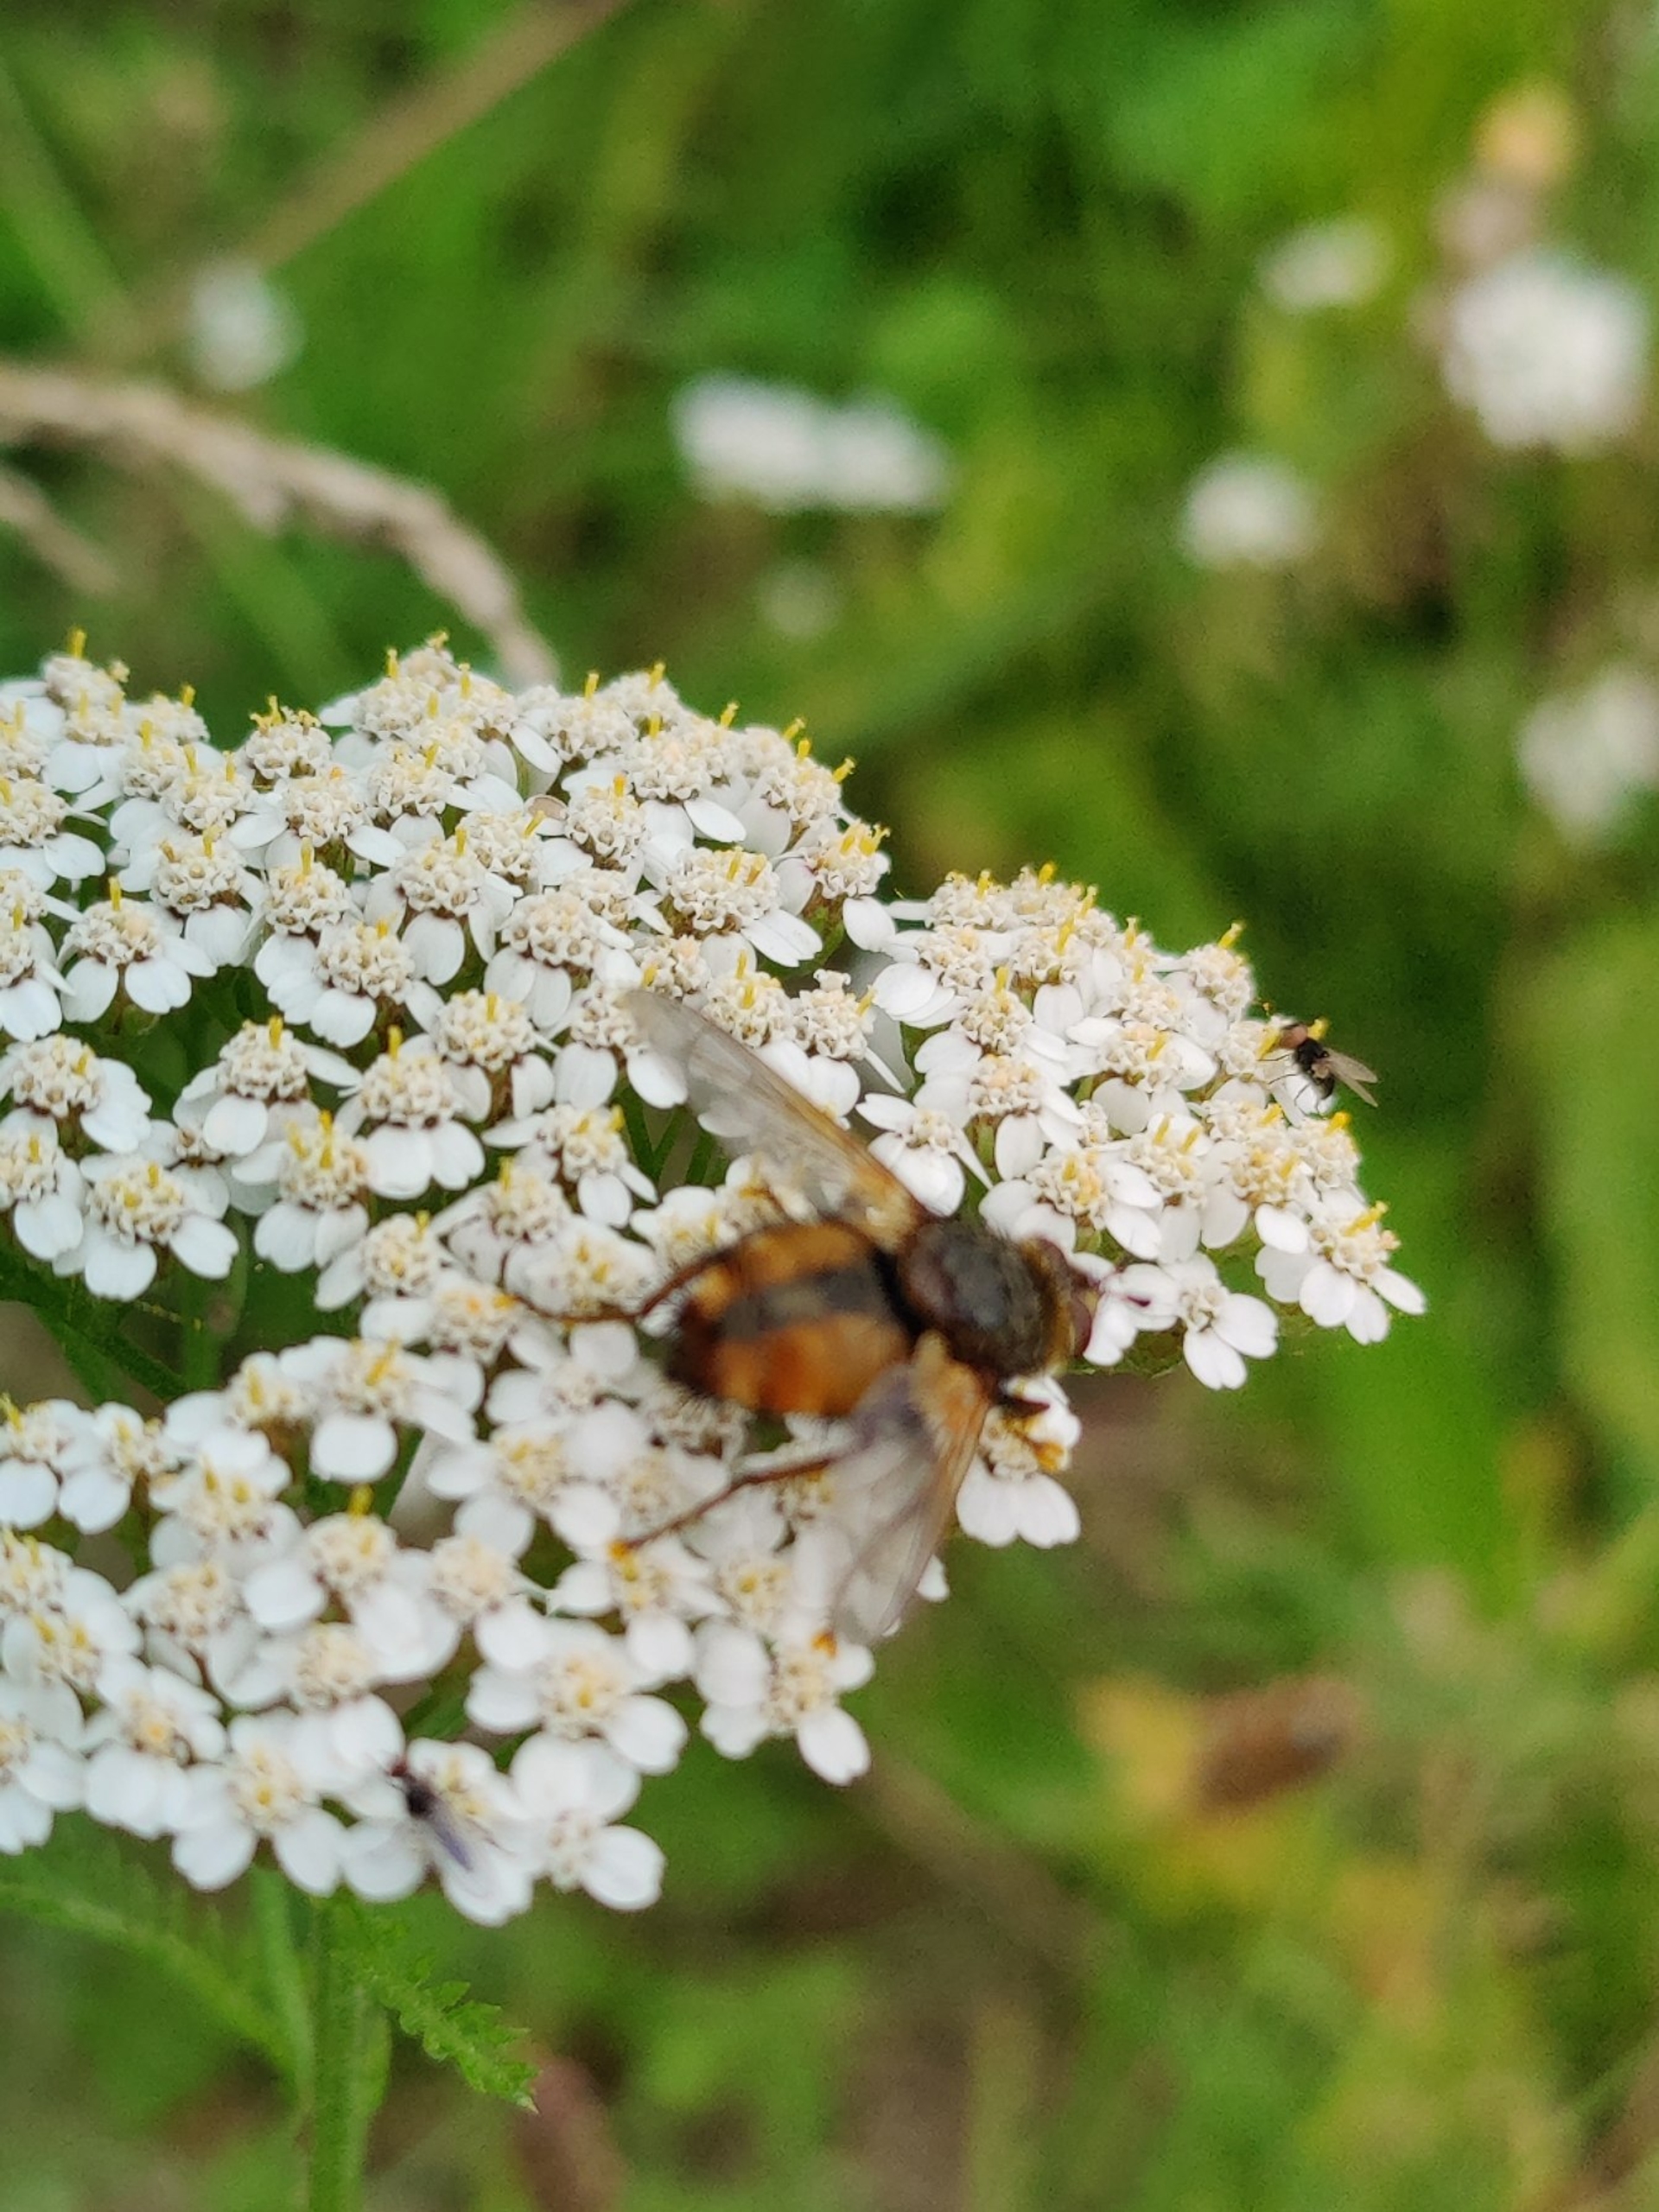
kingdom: Animalia
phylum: Arthropoda
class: Insecta
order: Diptera
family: Tachinidae
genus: Tachina
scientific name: Tachina fera
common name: Mellemfluen oskar
